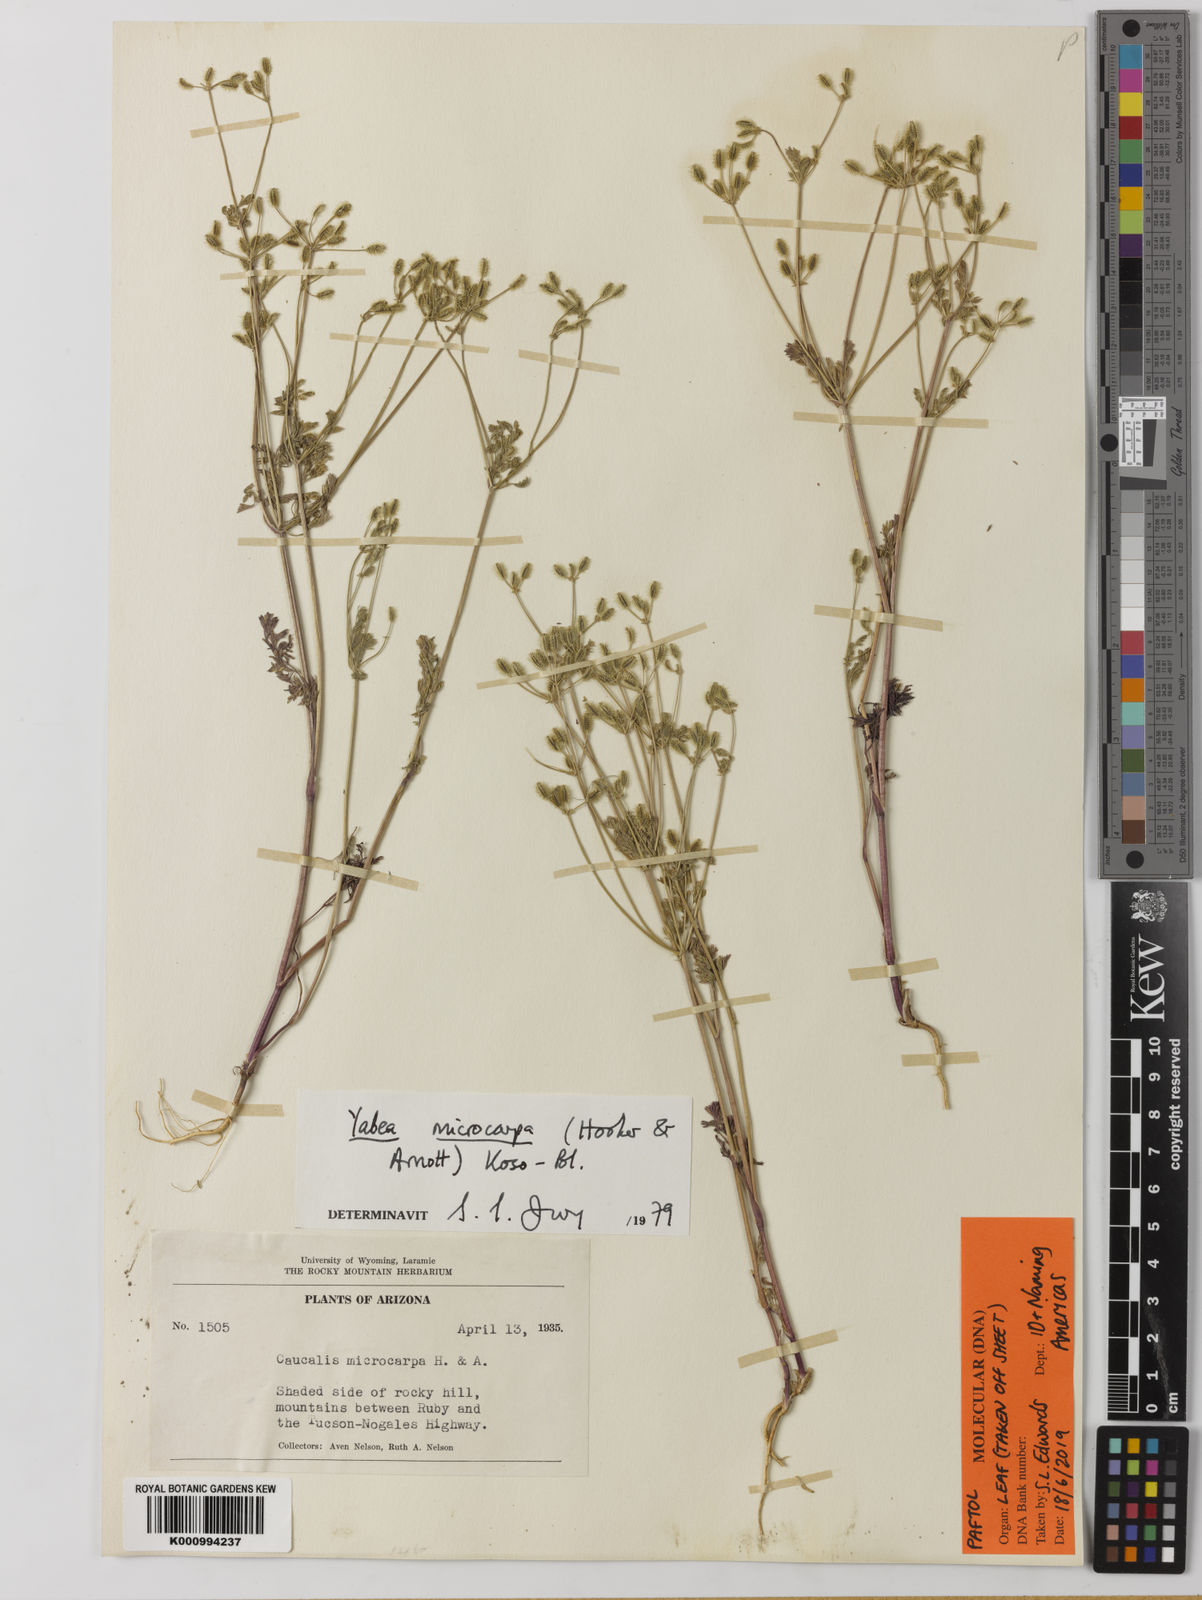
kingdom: Plantae
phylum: Tracheophyta
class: Magnoliopsida
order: Apiales
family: Apiaceae
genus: Yabea
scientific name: Yabea microcarpa
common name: False carrot
